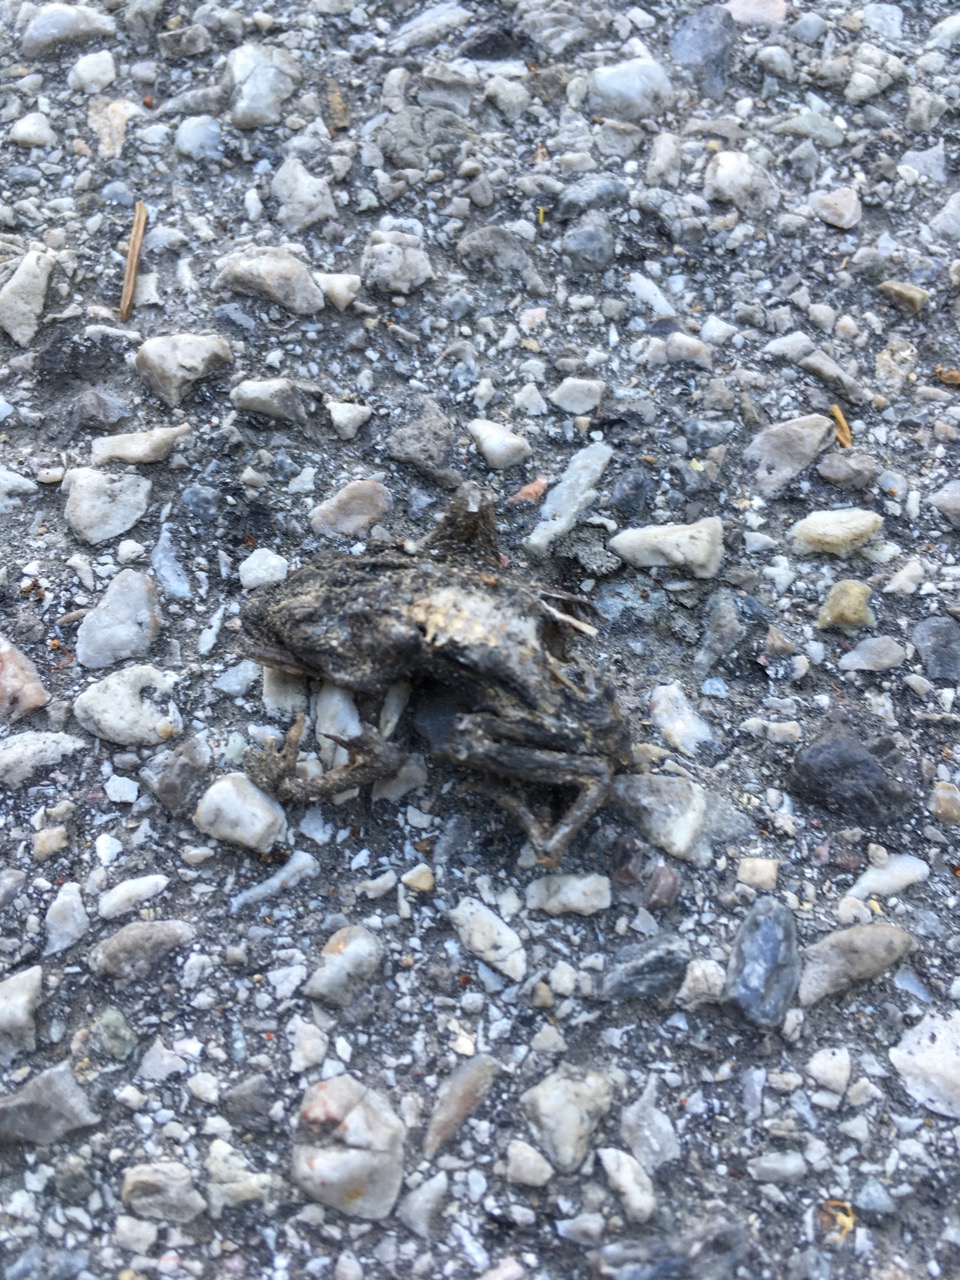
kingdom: Animalia
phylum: Chordata
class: Amphibia
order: Anura
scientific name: Anura
